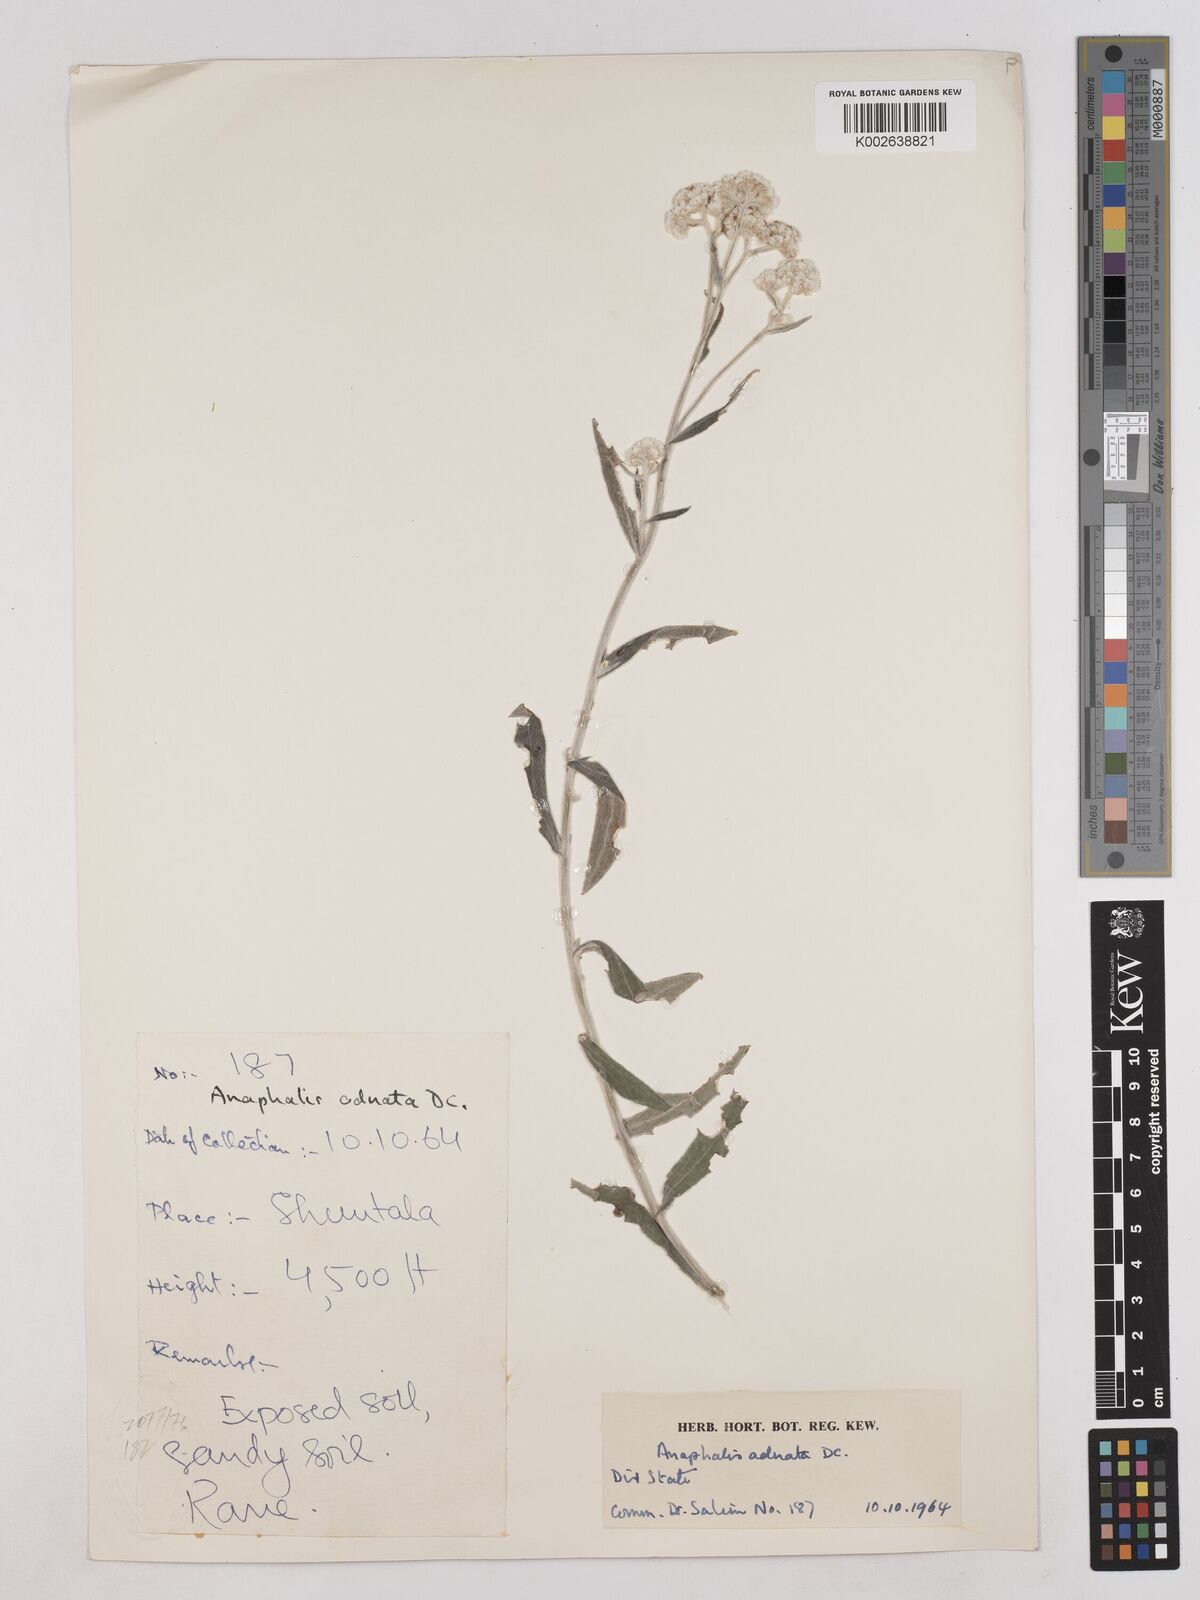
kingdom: Plantae
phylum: Tracheophyta
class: Magnoliopsida
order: Asterales
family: Asteraceae
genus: Pseudognaphalium
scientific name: Pseudognaphalium adnatum
